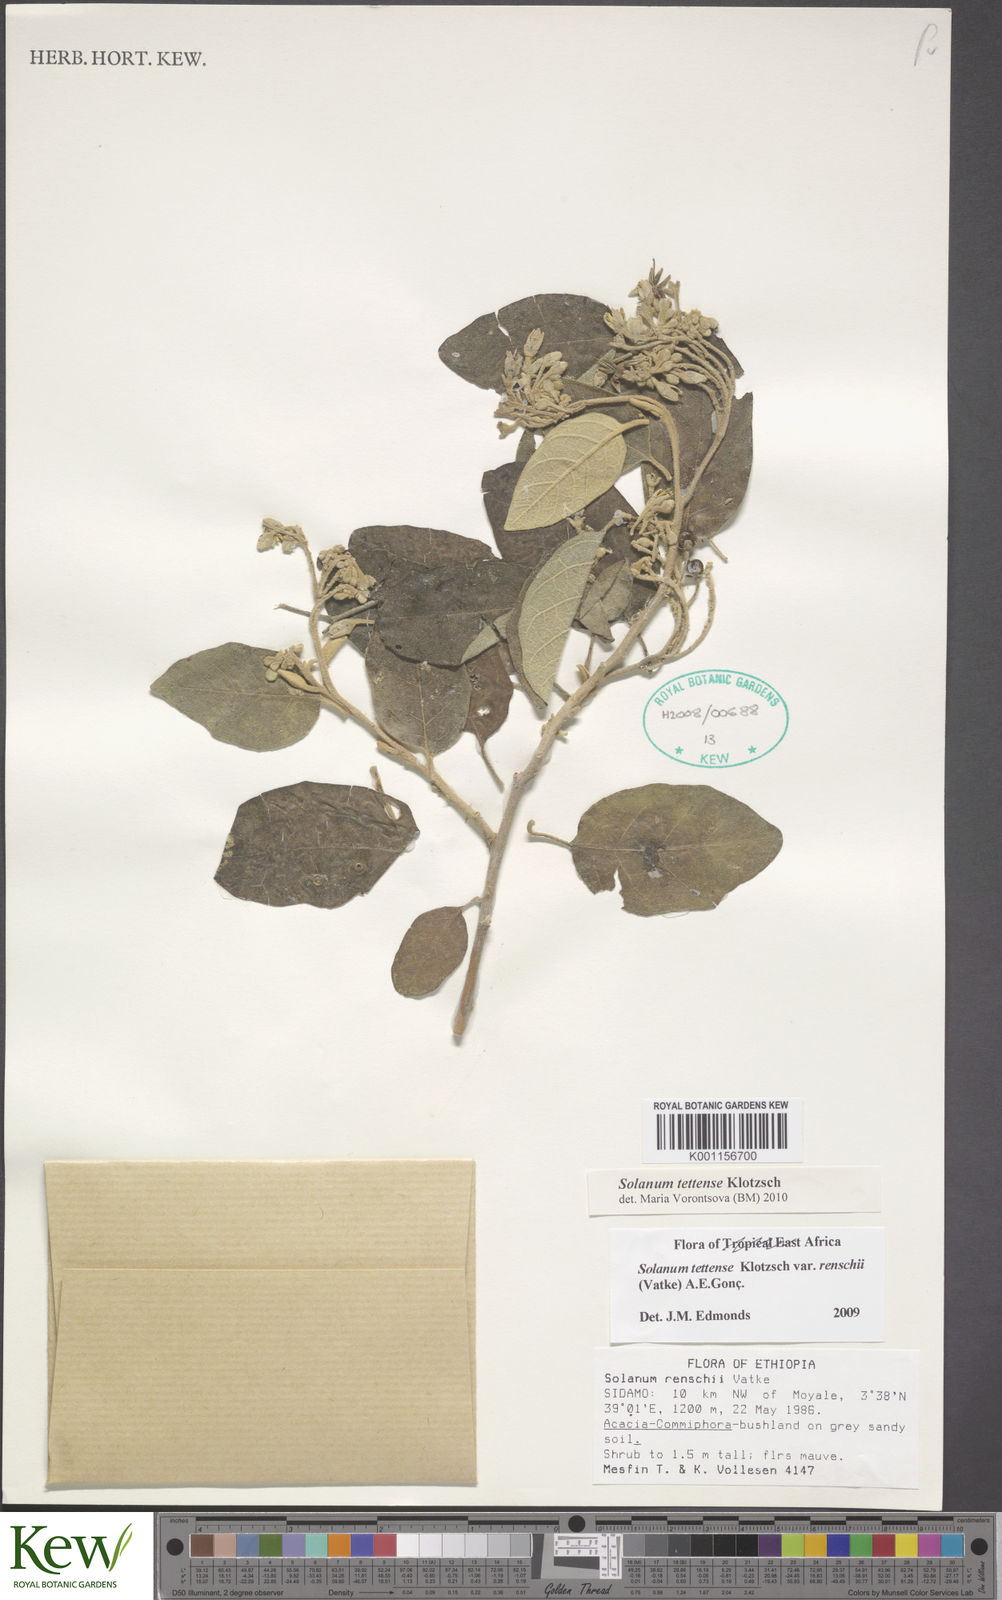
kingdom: Plantae
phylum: Tracheophyta
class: Magnoliopsida
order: Solanales
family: Solanaceae
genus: Solanum
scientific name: Solanum tettense
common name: Mozambique bitter apple
